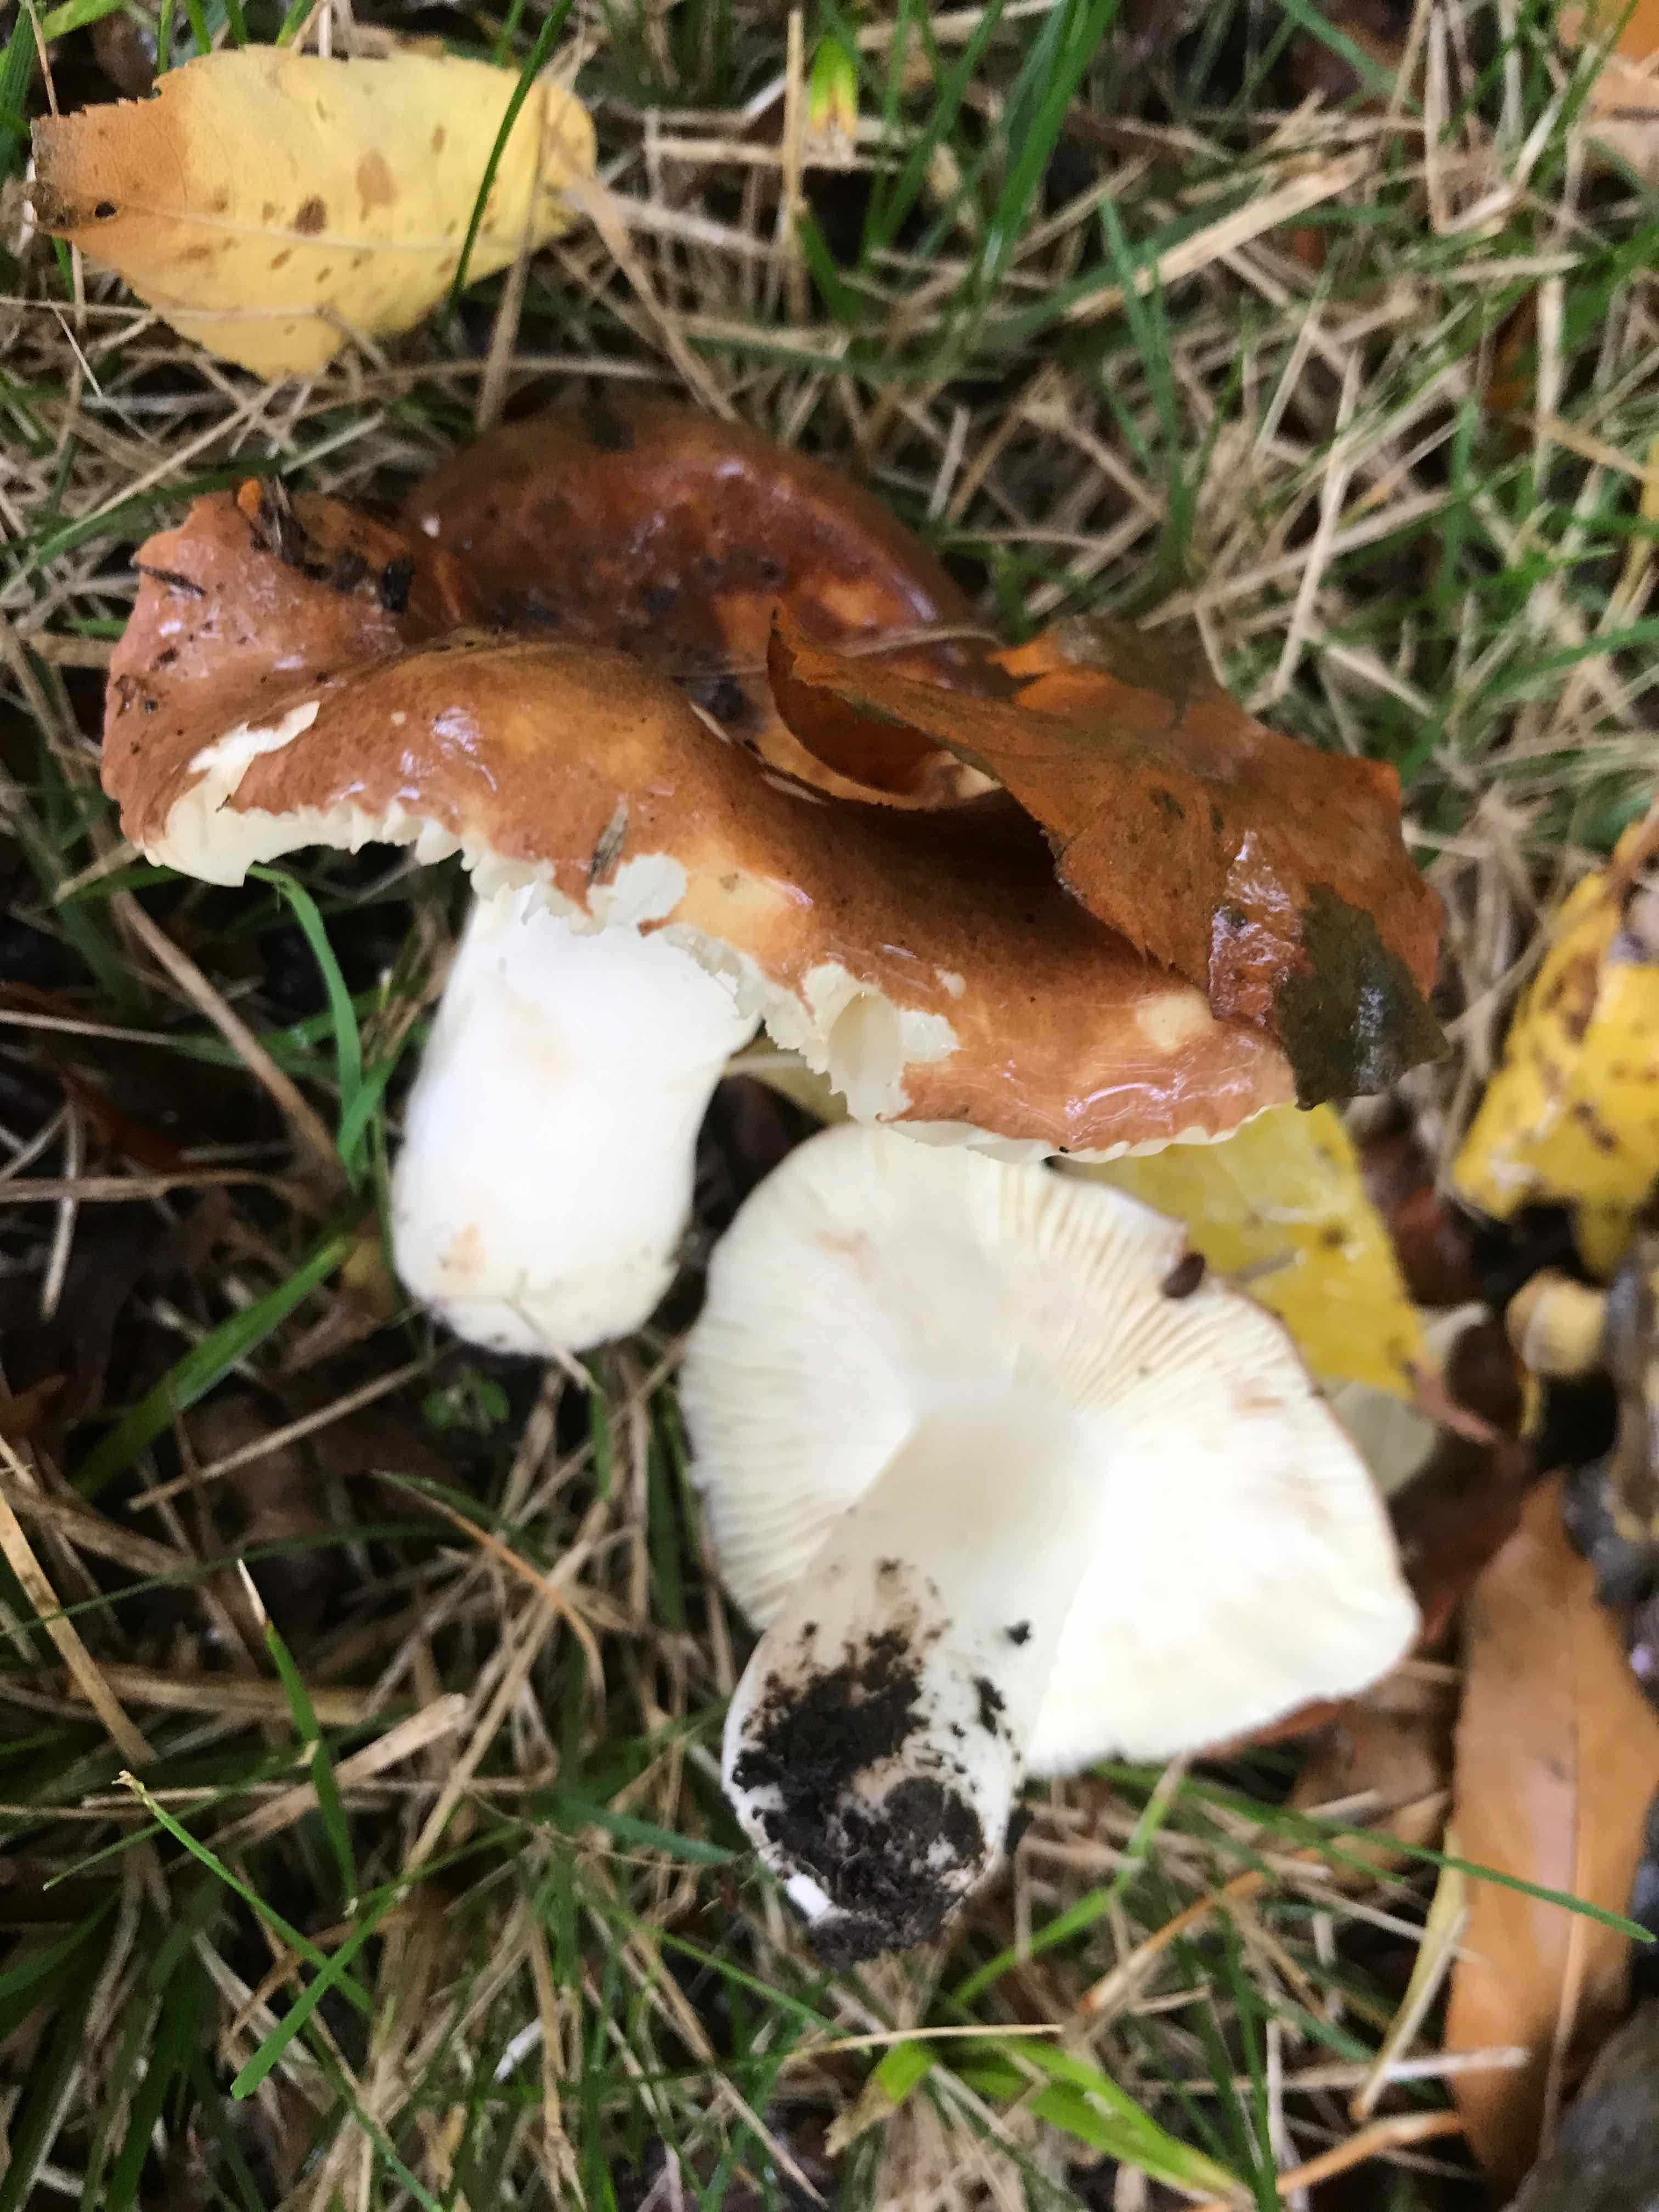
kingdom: Fungi
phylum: Basidiomycota
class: Agaricomycetes
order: Russulales
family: Russulaceae
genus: Russula
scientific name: Russula
